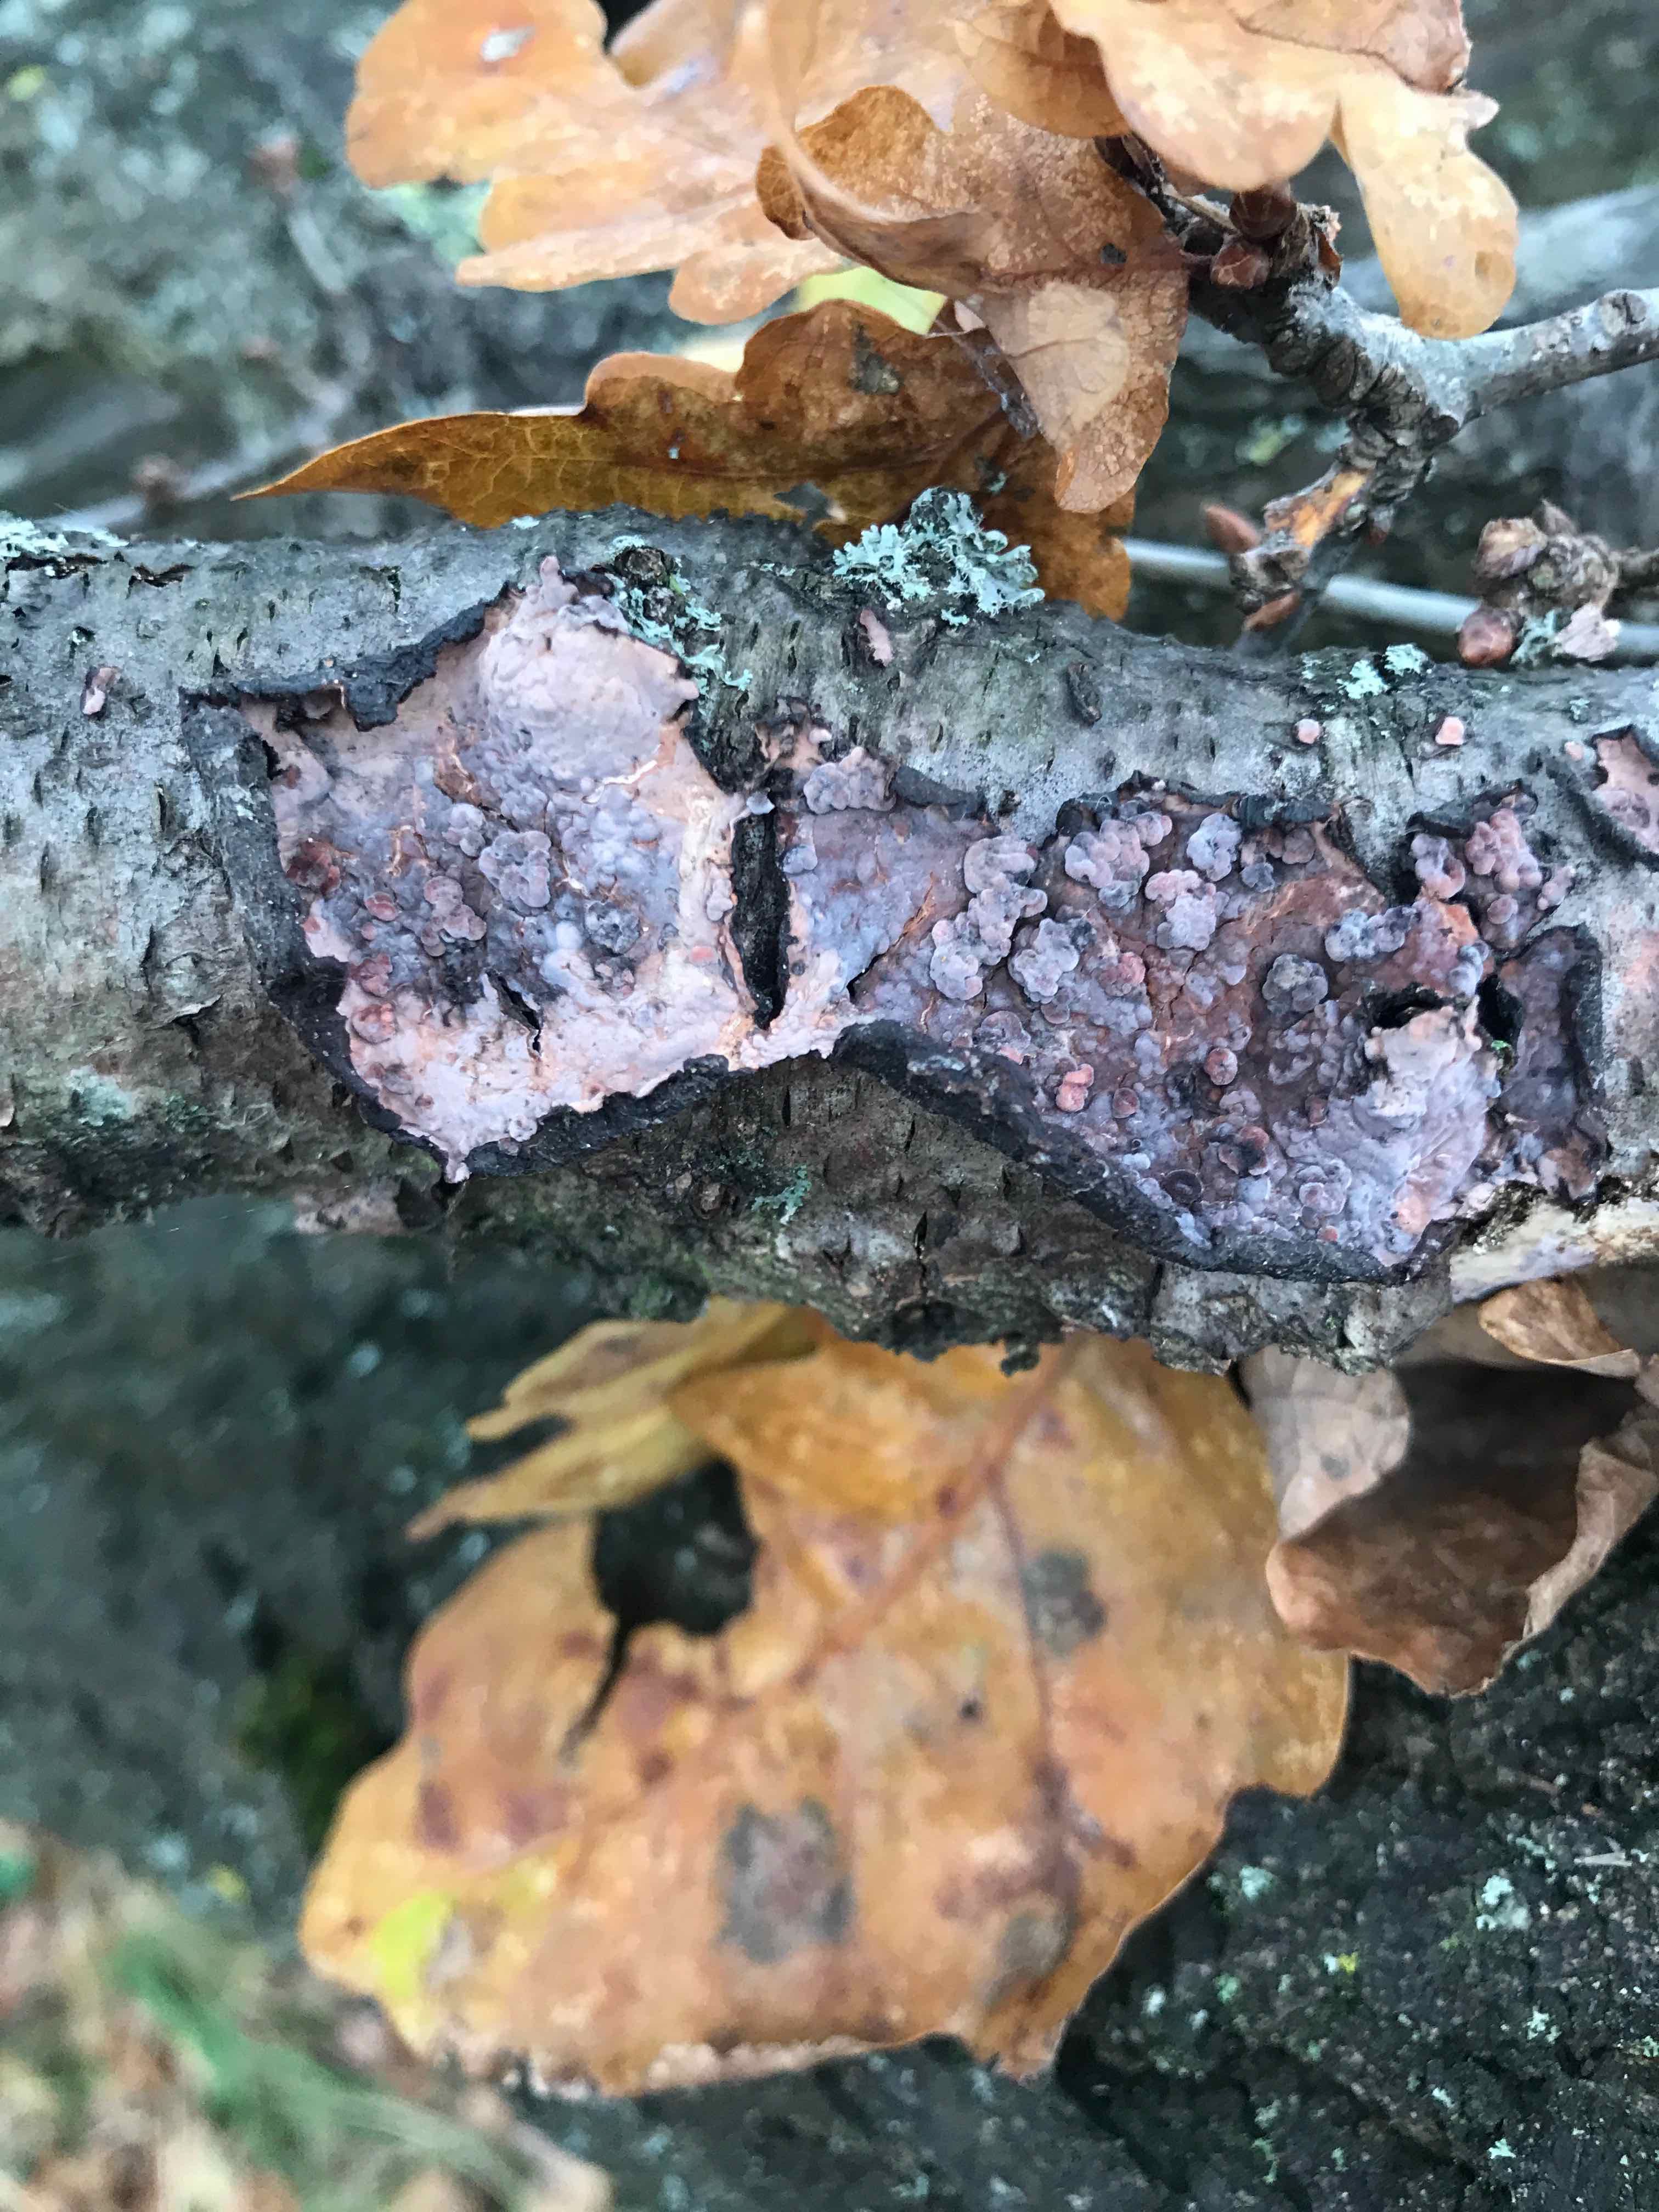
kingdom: Fungi
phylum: Basidiomycota
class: Agaricomycetes
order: Russulales
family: Peniophoraceae
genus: Peniophora
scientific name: Peniophora quercina
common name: ege-voksskind
